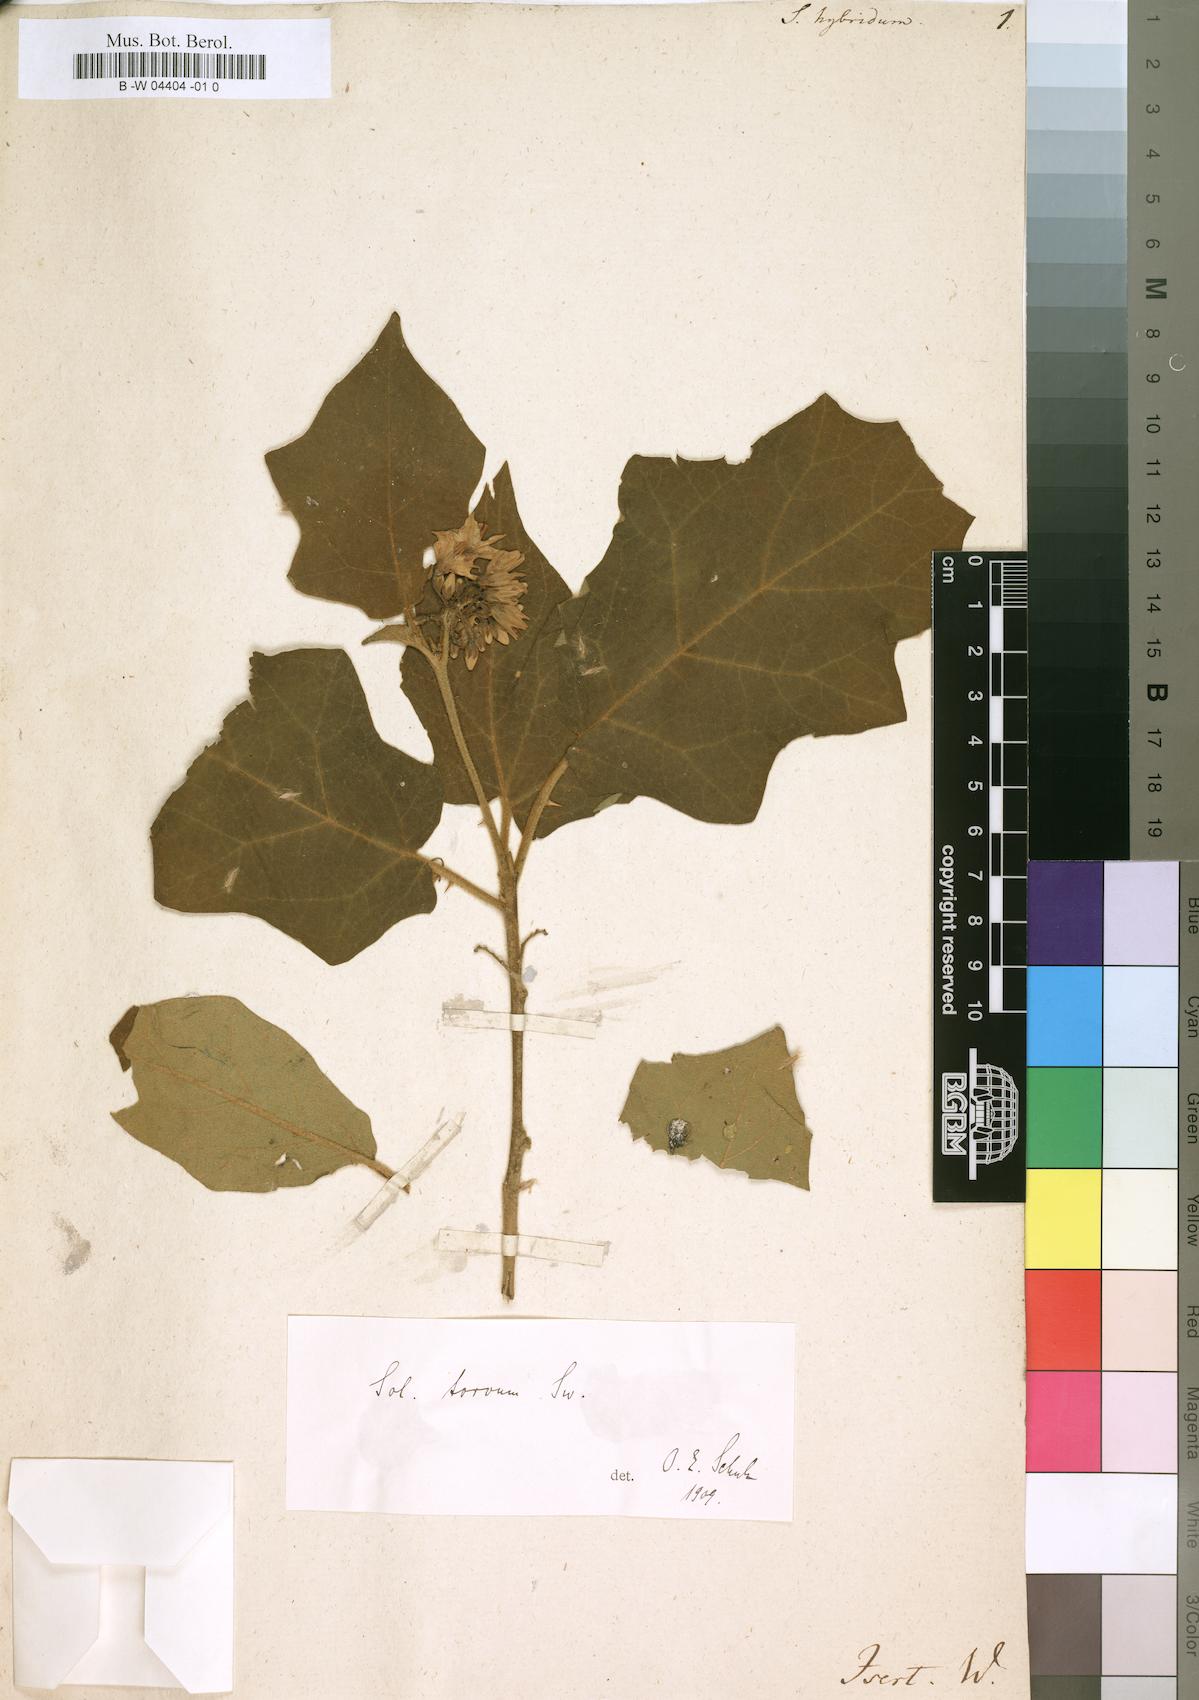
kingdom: Plantae
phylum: Tracheophyta
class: Magnoliopsida
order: Solanales
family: Solanaceae
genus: Solanum
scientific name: Solanum
